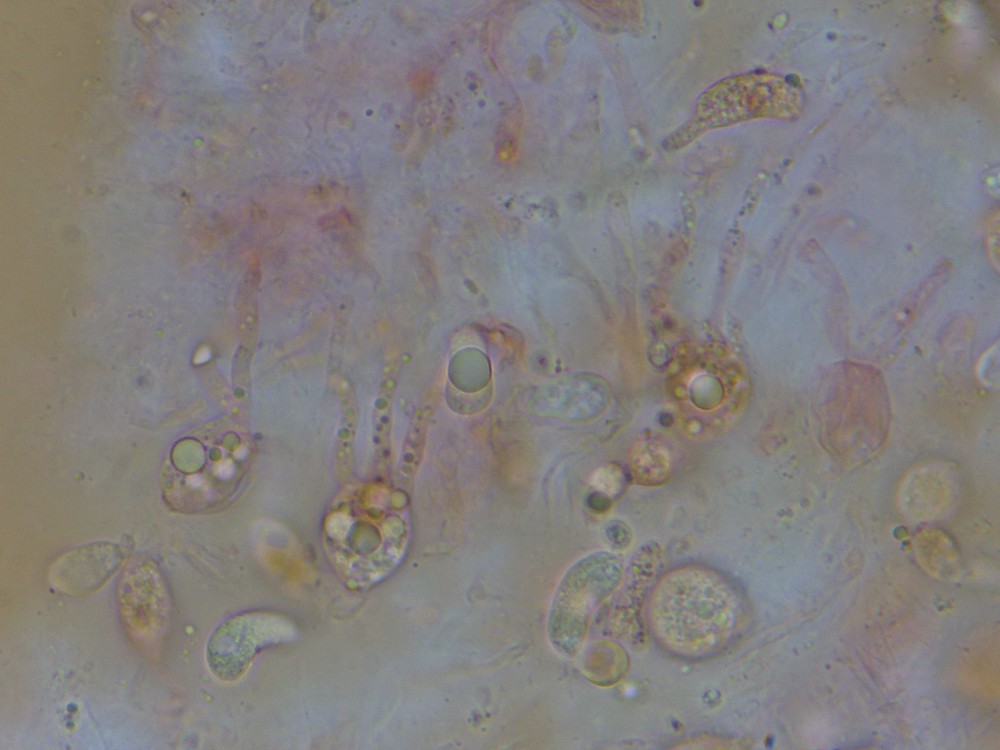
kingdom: Fungi
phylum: Basidiomycota
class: Agaricomycetes
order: Sebacinales
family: Sebacinaceae
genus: Sebacina
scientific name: Sebacina grisea
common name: blågrå bævrehinde
